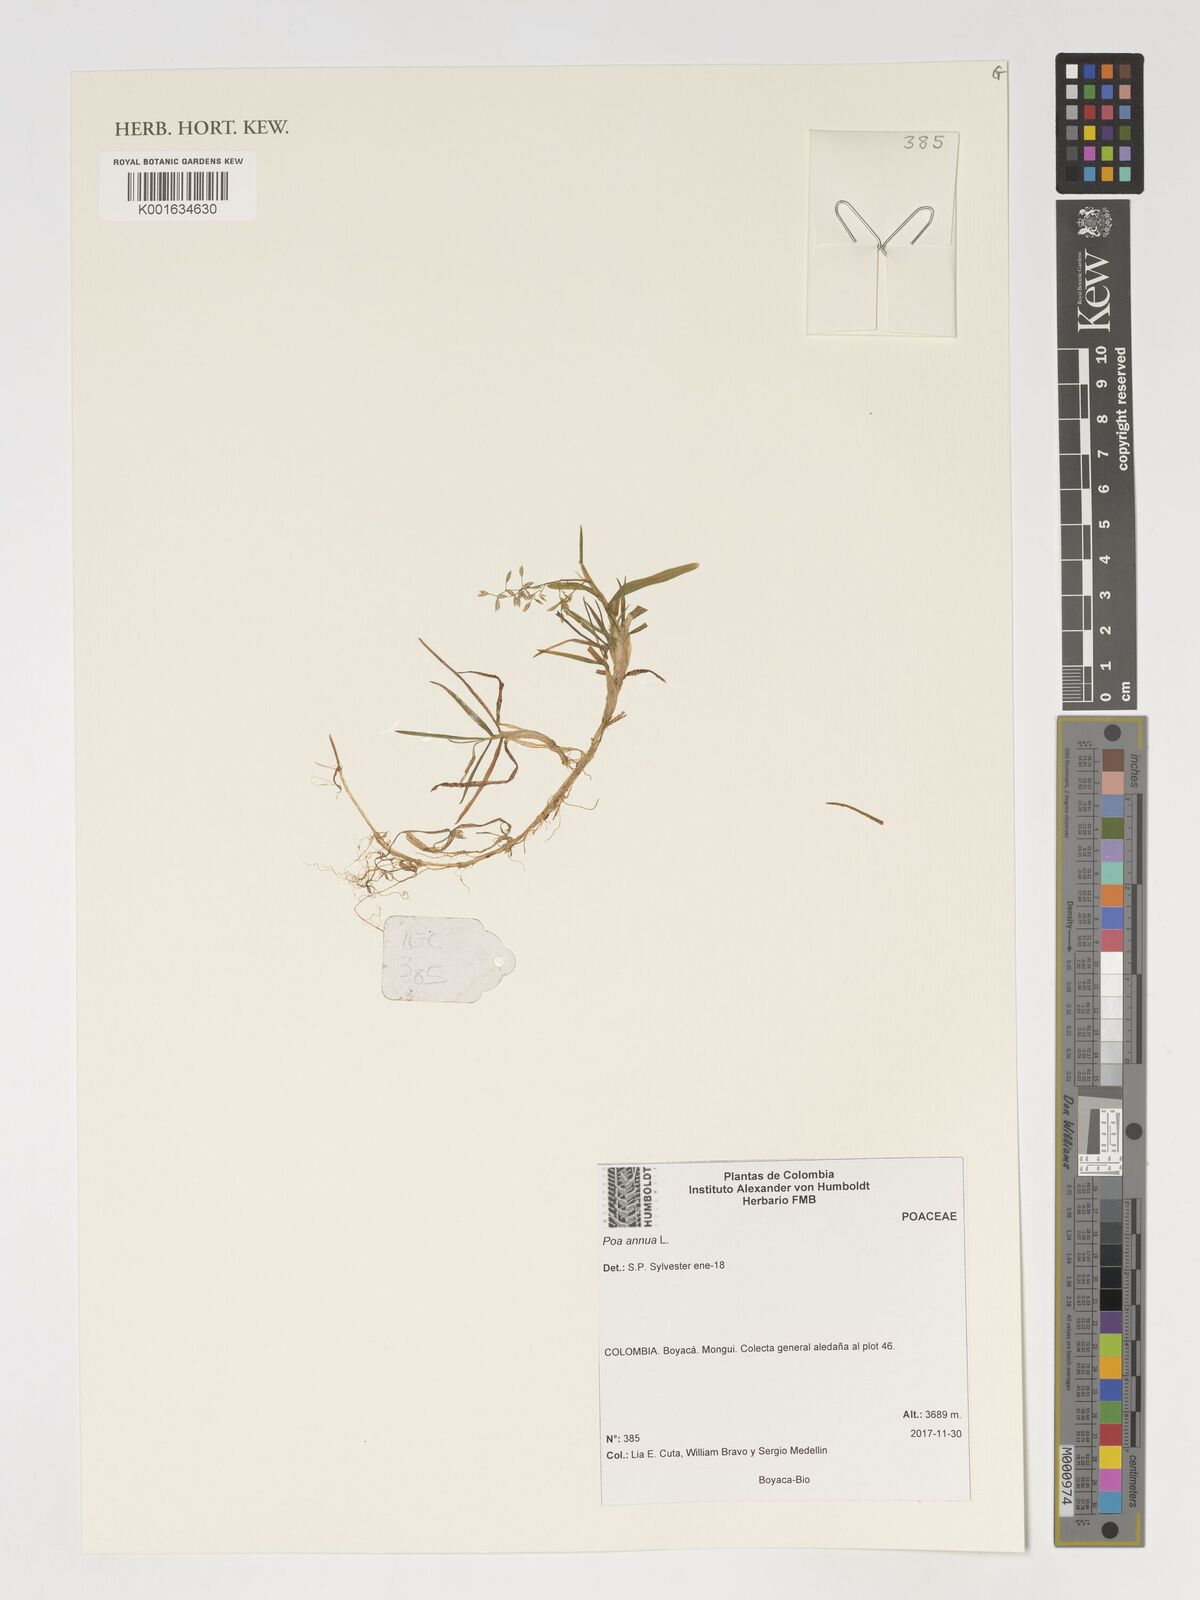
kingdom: Plantae
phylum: Tracheophyta
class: Liliopsida
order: Poales
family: Poaceae
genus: Poa
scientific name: Poa annua
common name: Annual bluegrass
